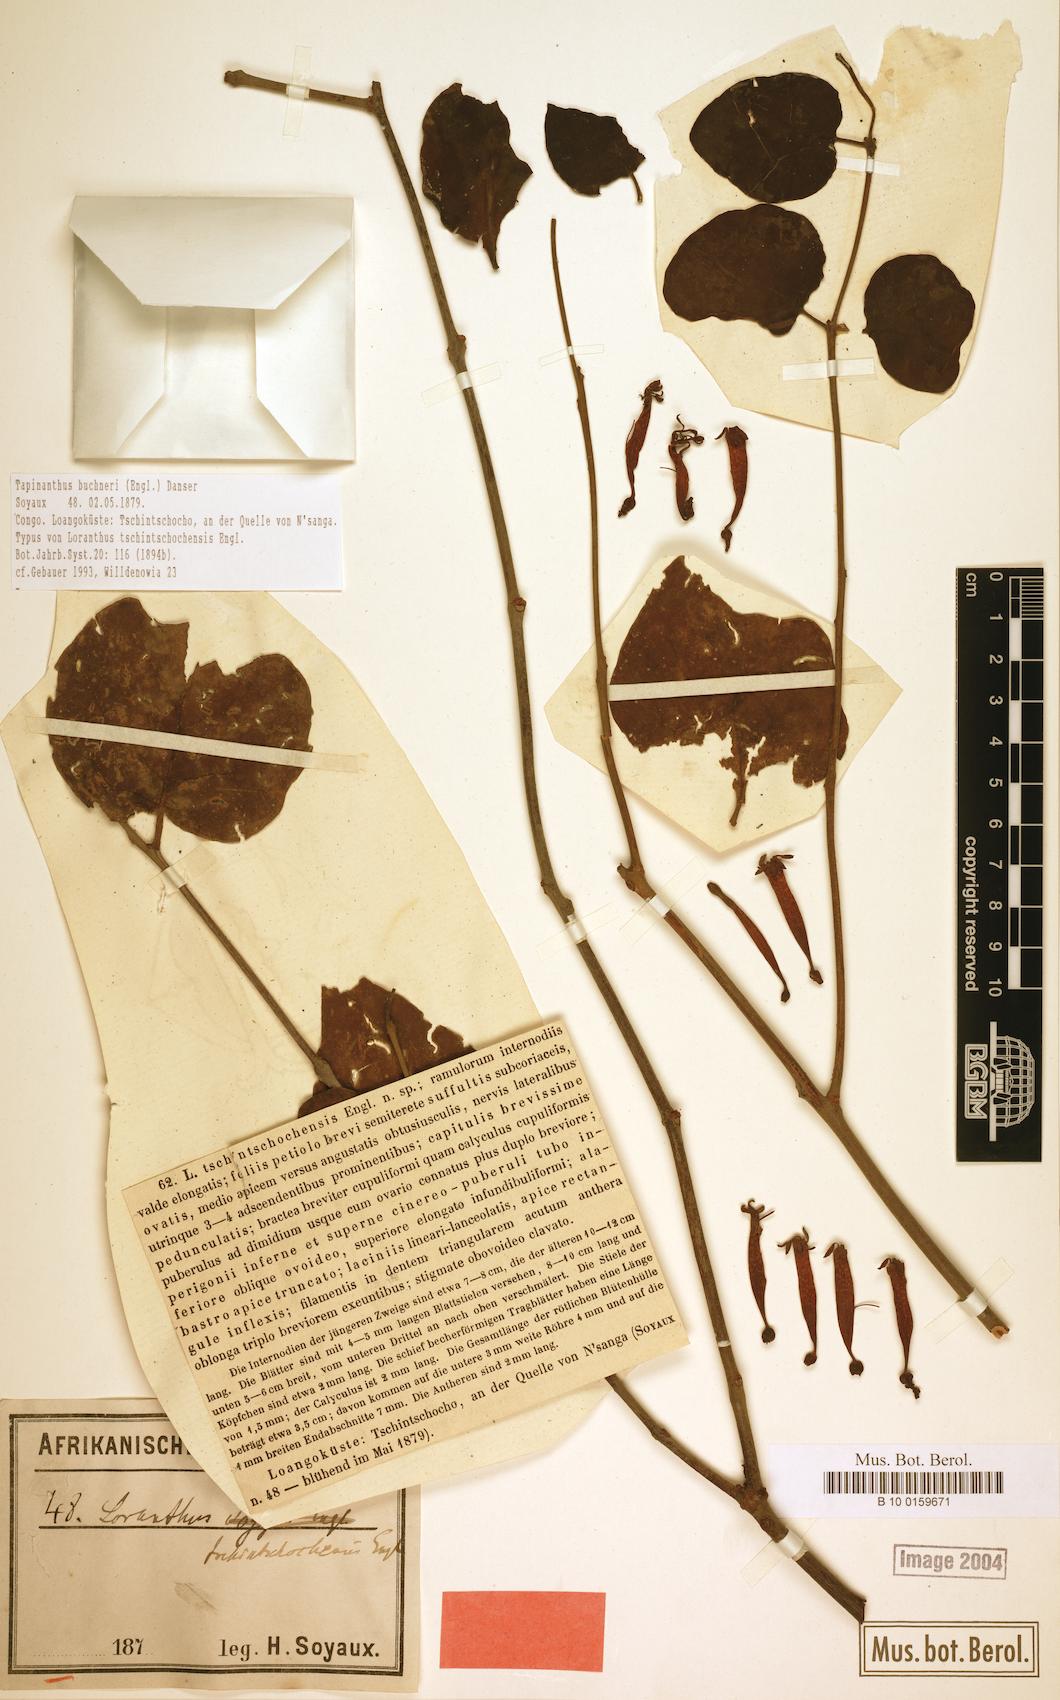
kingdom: Plantae
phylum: Tracheophyta
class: Magnoliopsida
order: Santalales
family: Loranthaceae
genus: Tapinanthus
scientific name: Tapinanthus buchneri
